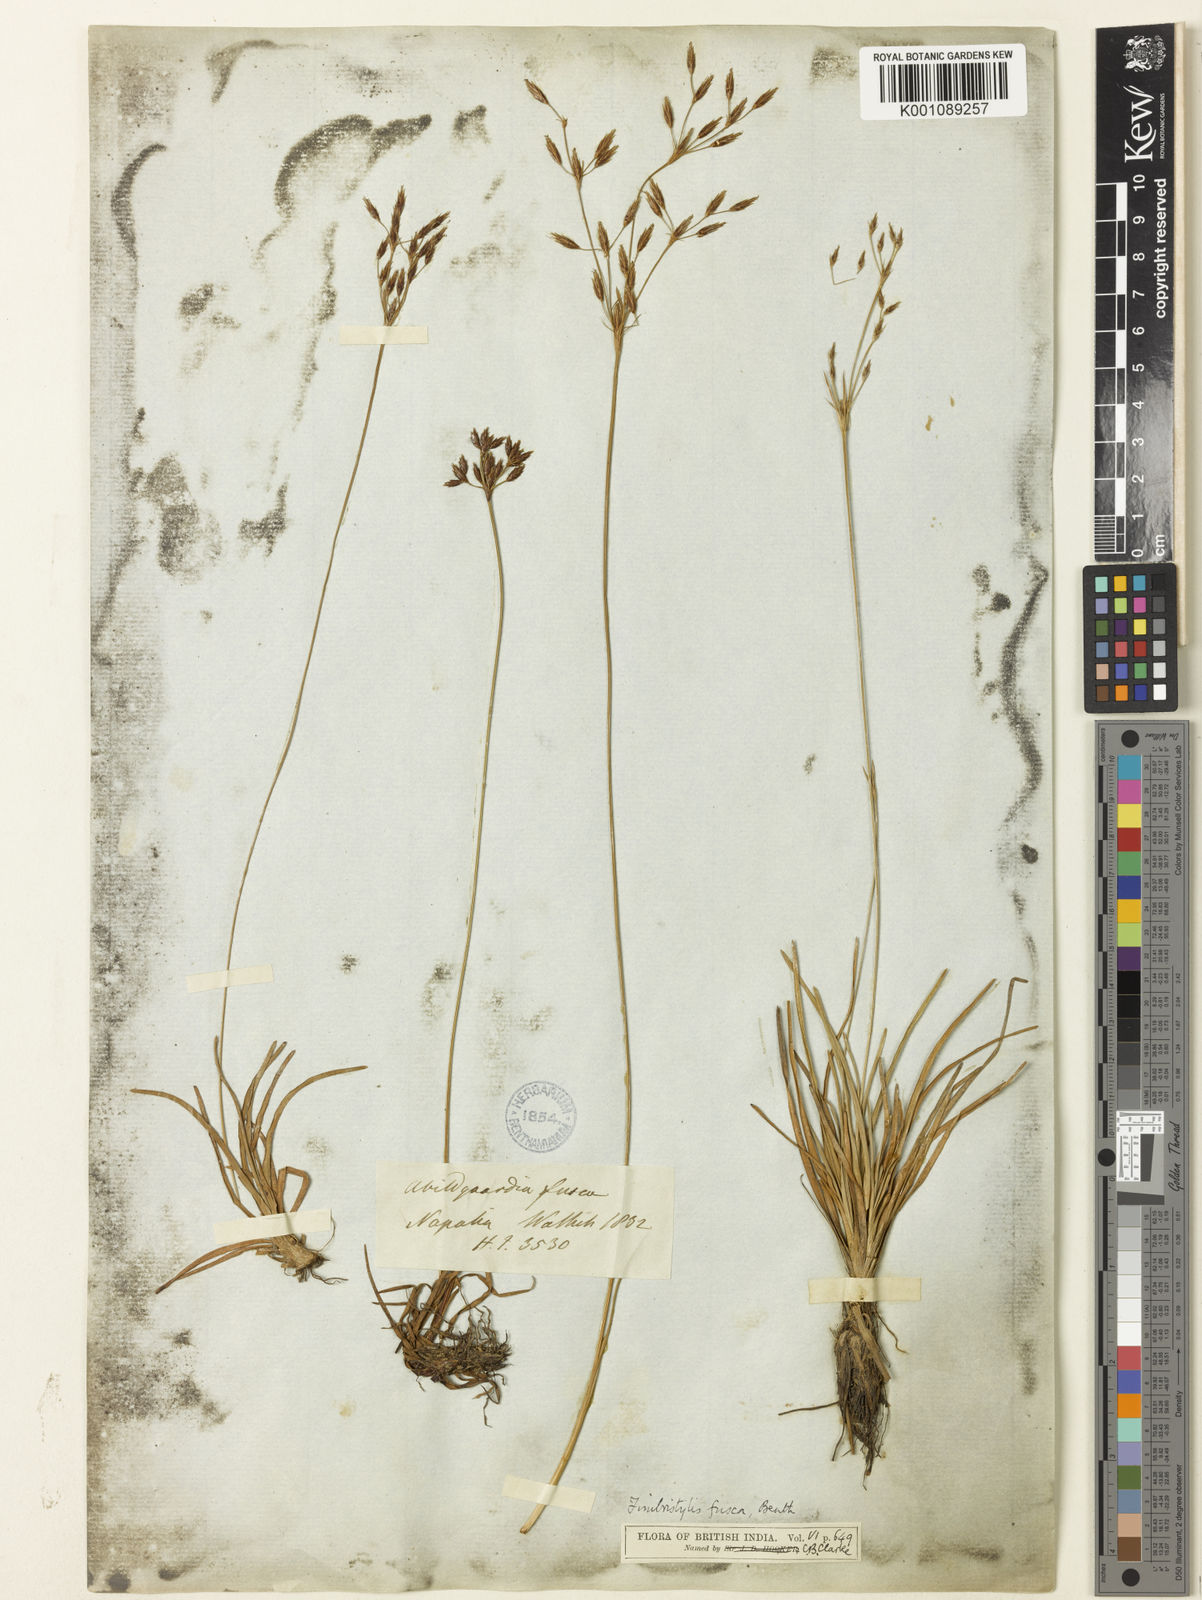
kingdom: Plantae
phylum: Tracheophyta
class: Liliopsida
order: Poales
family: Cyperaceae
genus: Fimbristylis
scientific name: Fimbristylis fusca
